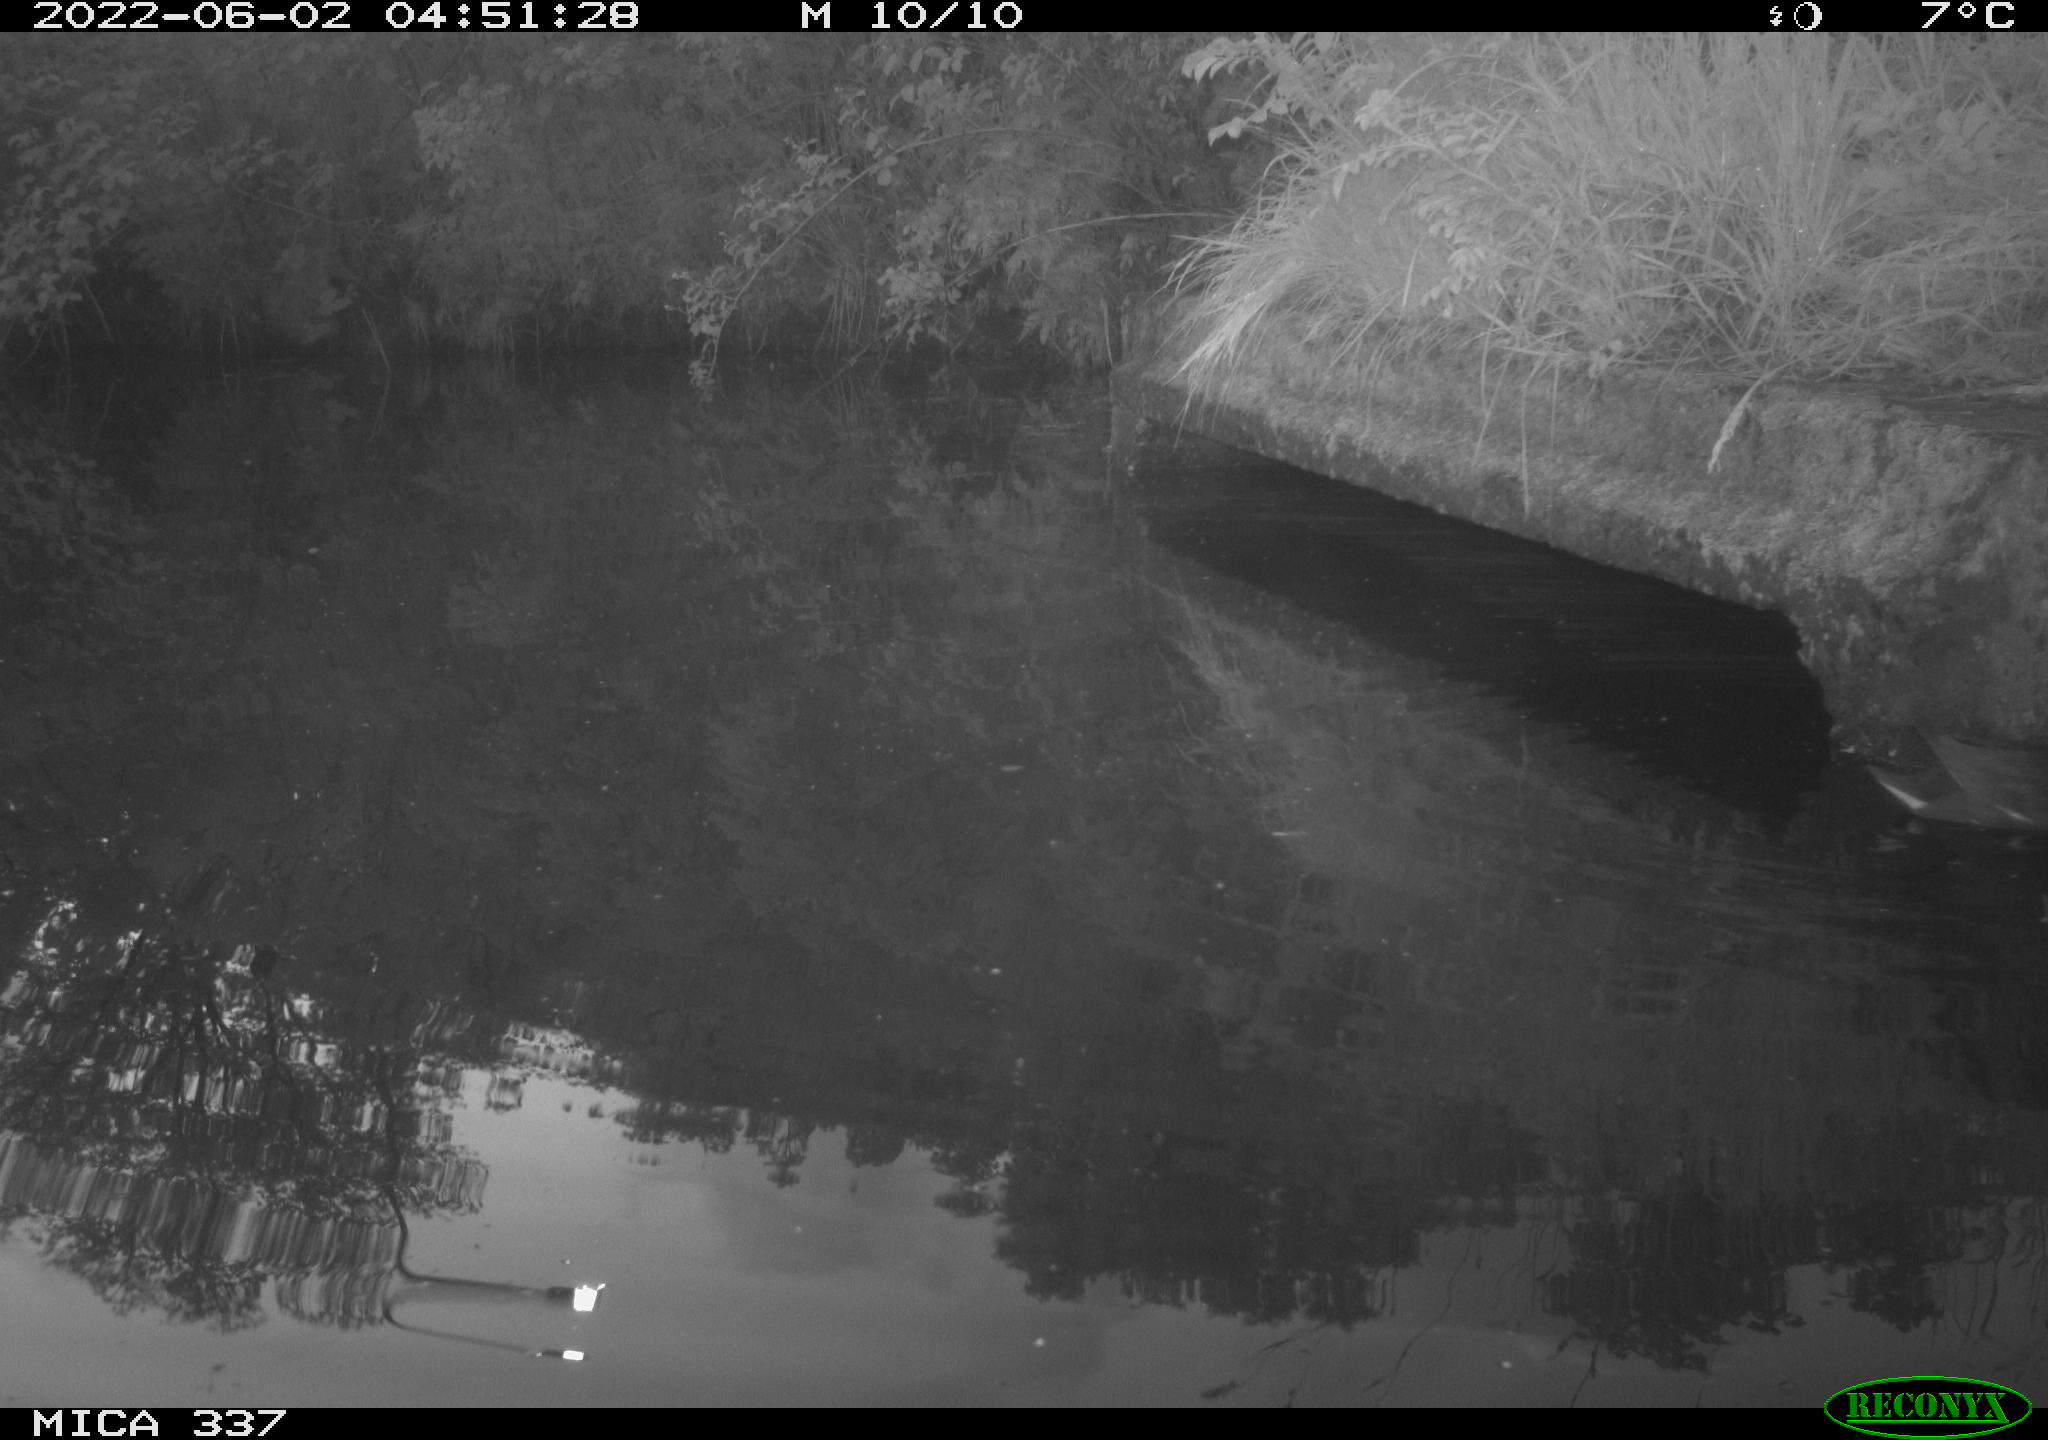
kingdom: Animalia
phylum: Chordata
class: Aves
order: Gruiformes
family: Rallidae
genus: Gallinula
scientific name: Gallinula chloropus
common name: Common moorhen
